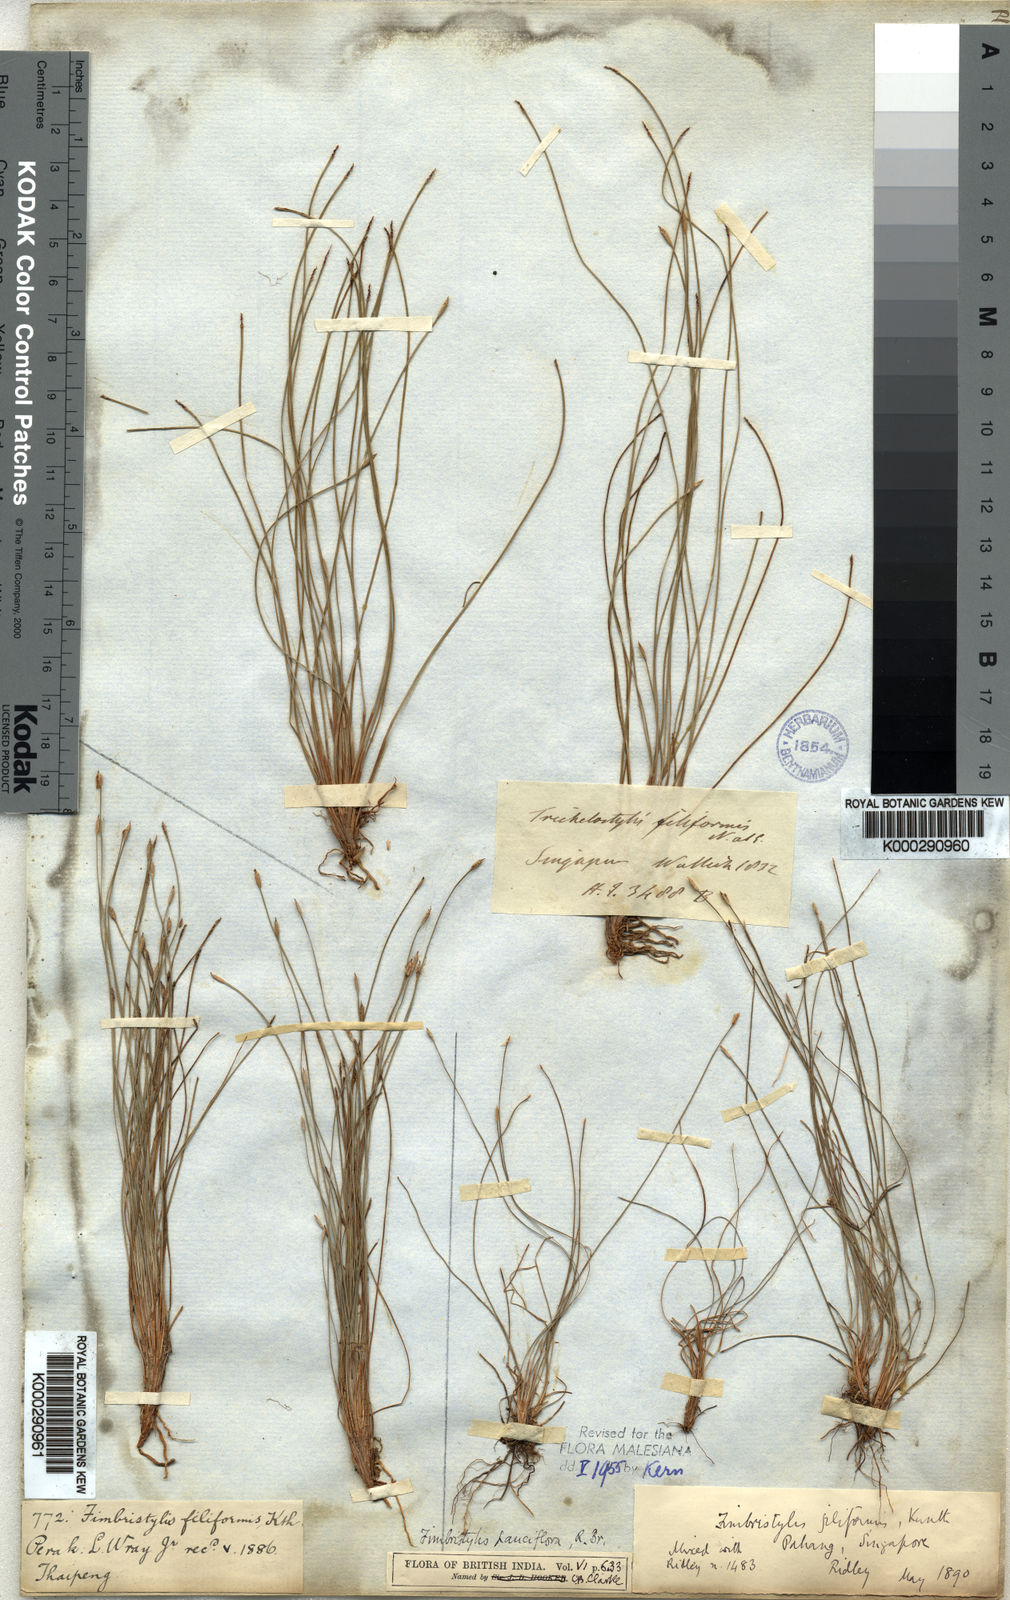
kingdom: Plantae
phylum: Tracheophyta
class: Liliopsida
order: Poales
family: Cyperaceae
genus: Fimbristylis
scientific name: Fimbristylis pauciflora
